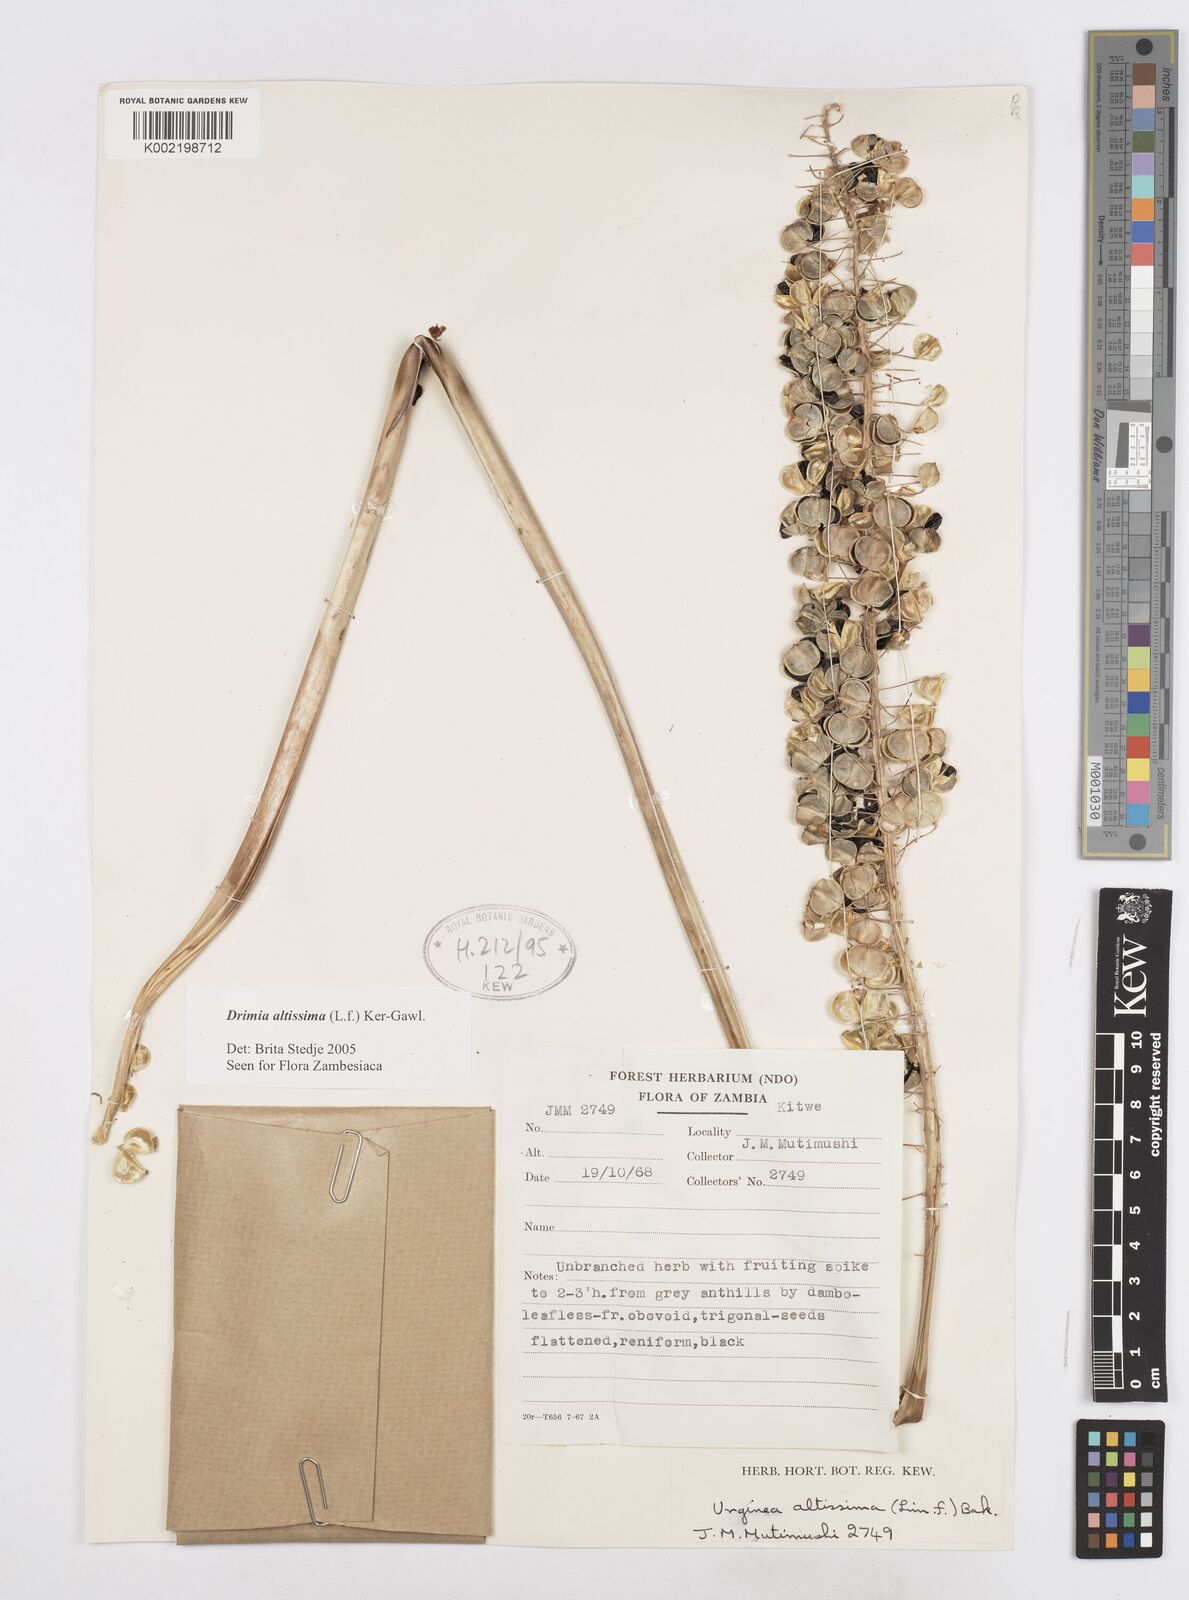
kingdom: Plantae
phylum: Tracheophyta
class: Liliopsida
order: Asparagales
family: Asparagaceae
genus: Drimia
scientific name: Drimia
